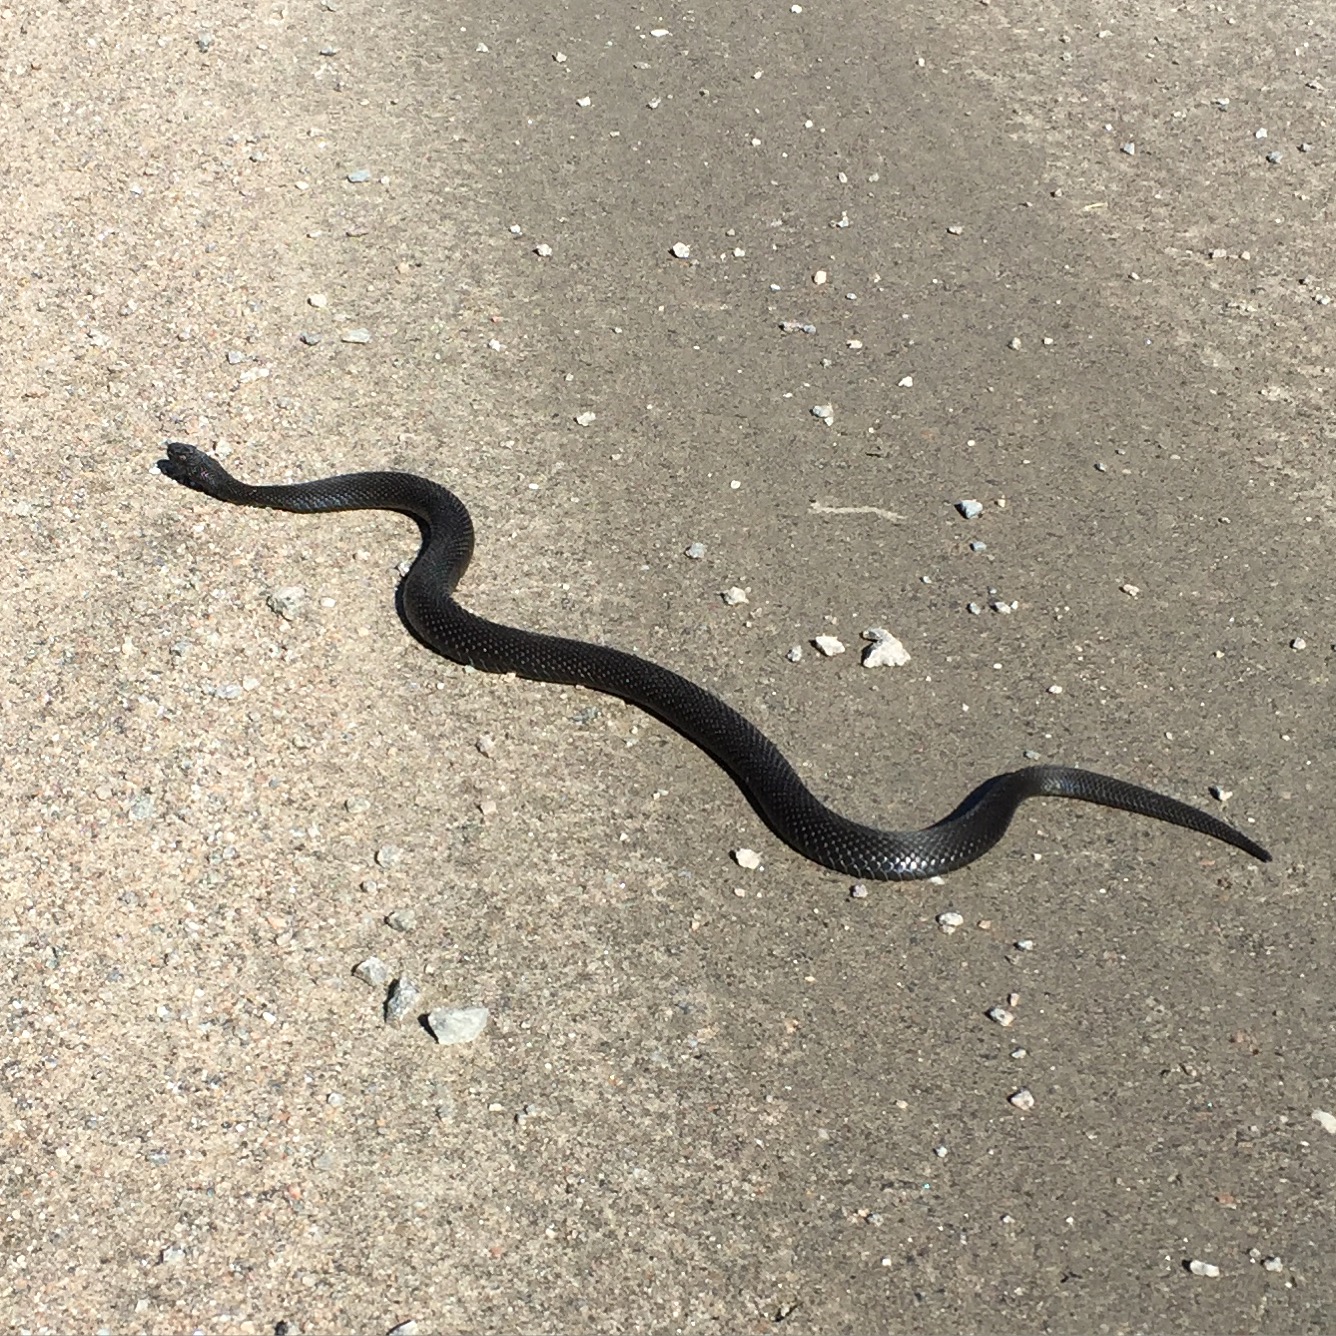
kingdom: Animalia
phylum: Chordata
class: Squamata
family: Viperidae
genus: Vipera
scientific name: Vipera berus
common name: Adder
